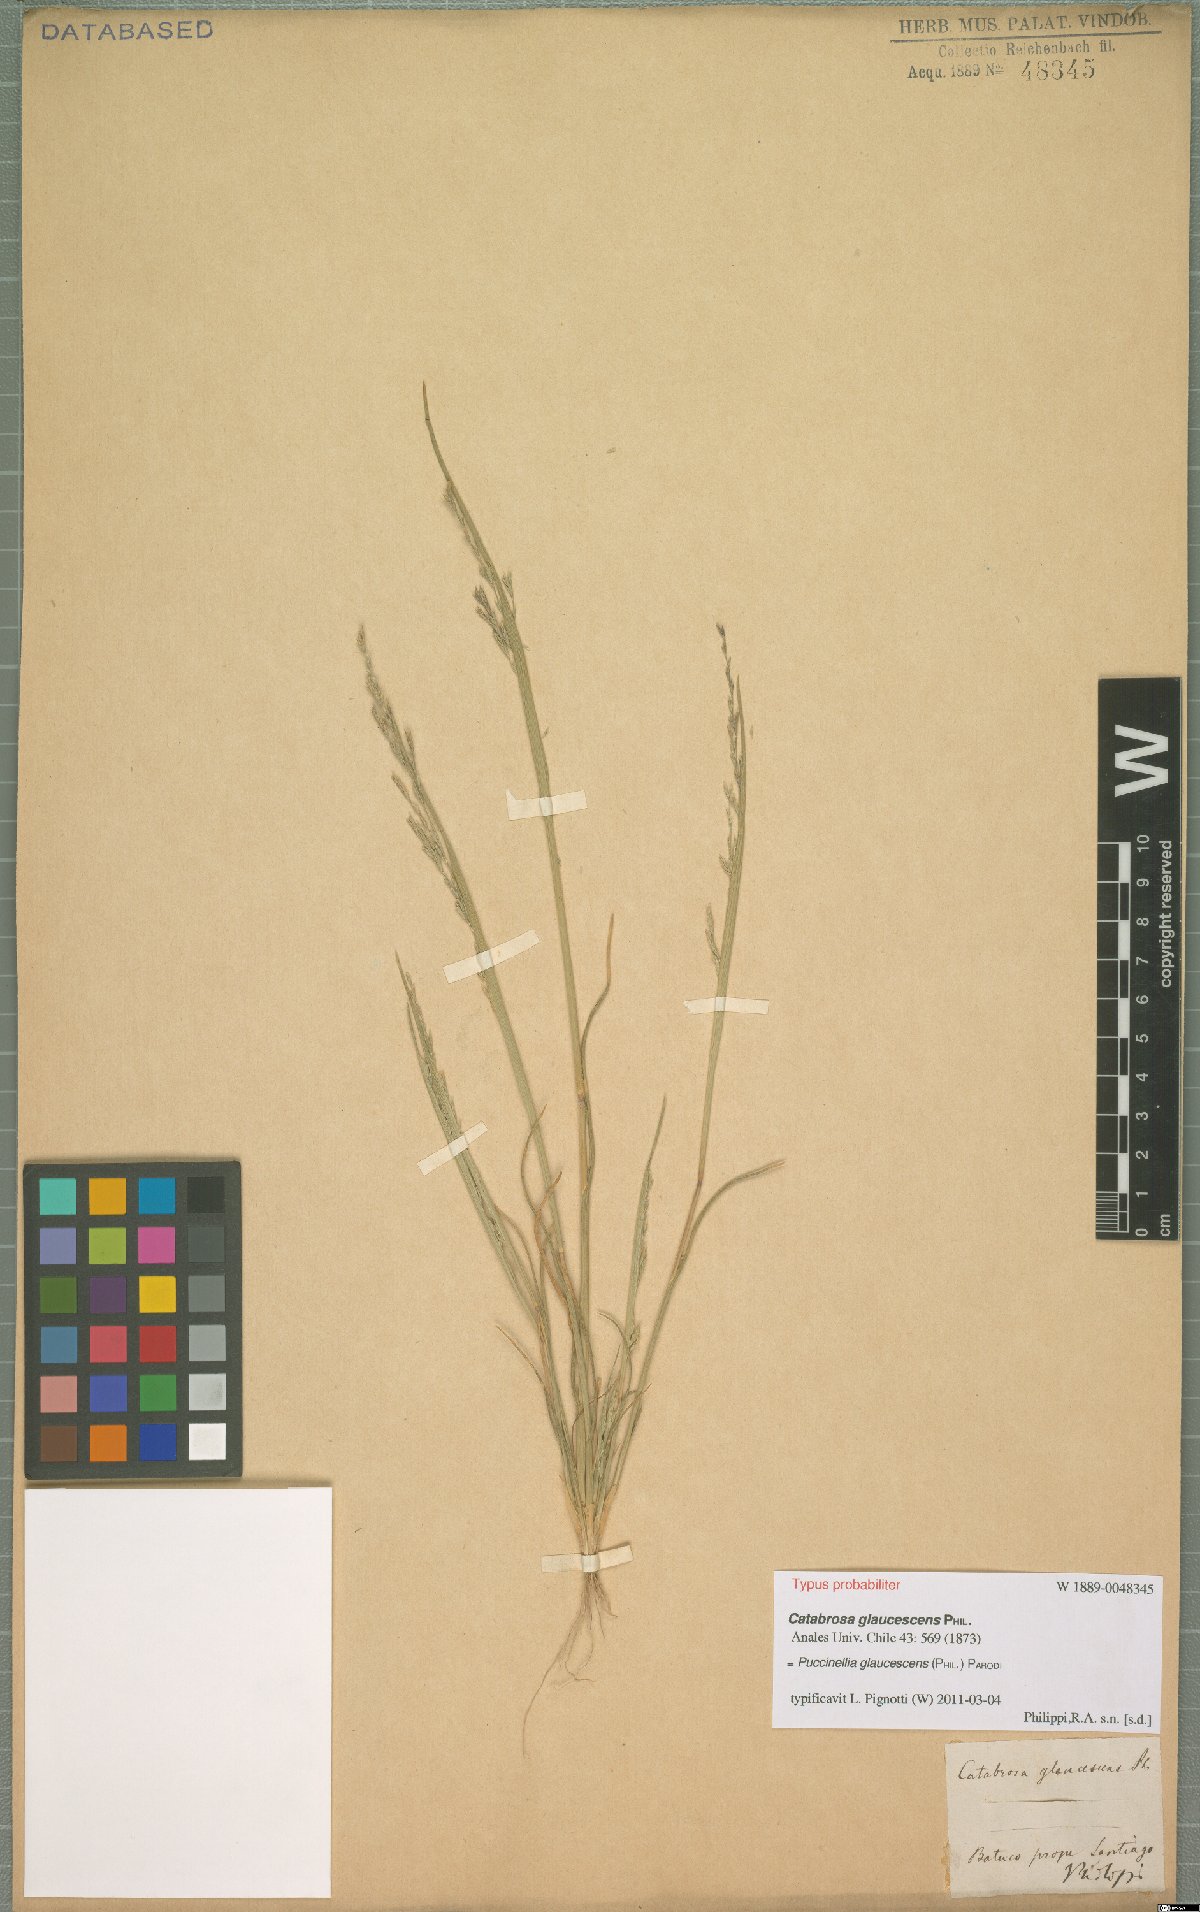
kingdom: Plantae
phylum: Tracheophyta
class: Liliopsida
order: Poales
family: Poaceae
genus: Puccinellia
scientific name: Puccinellia glaucescens
